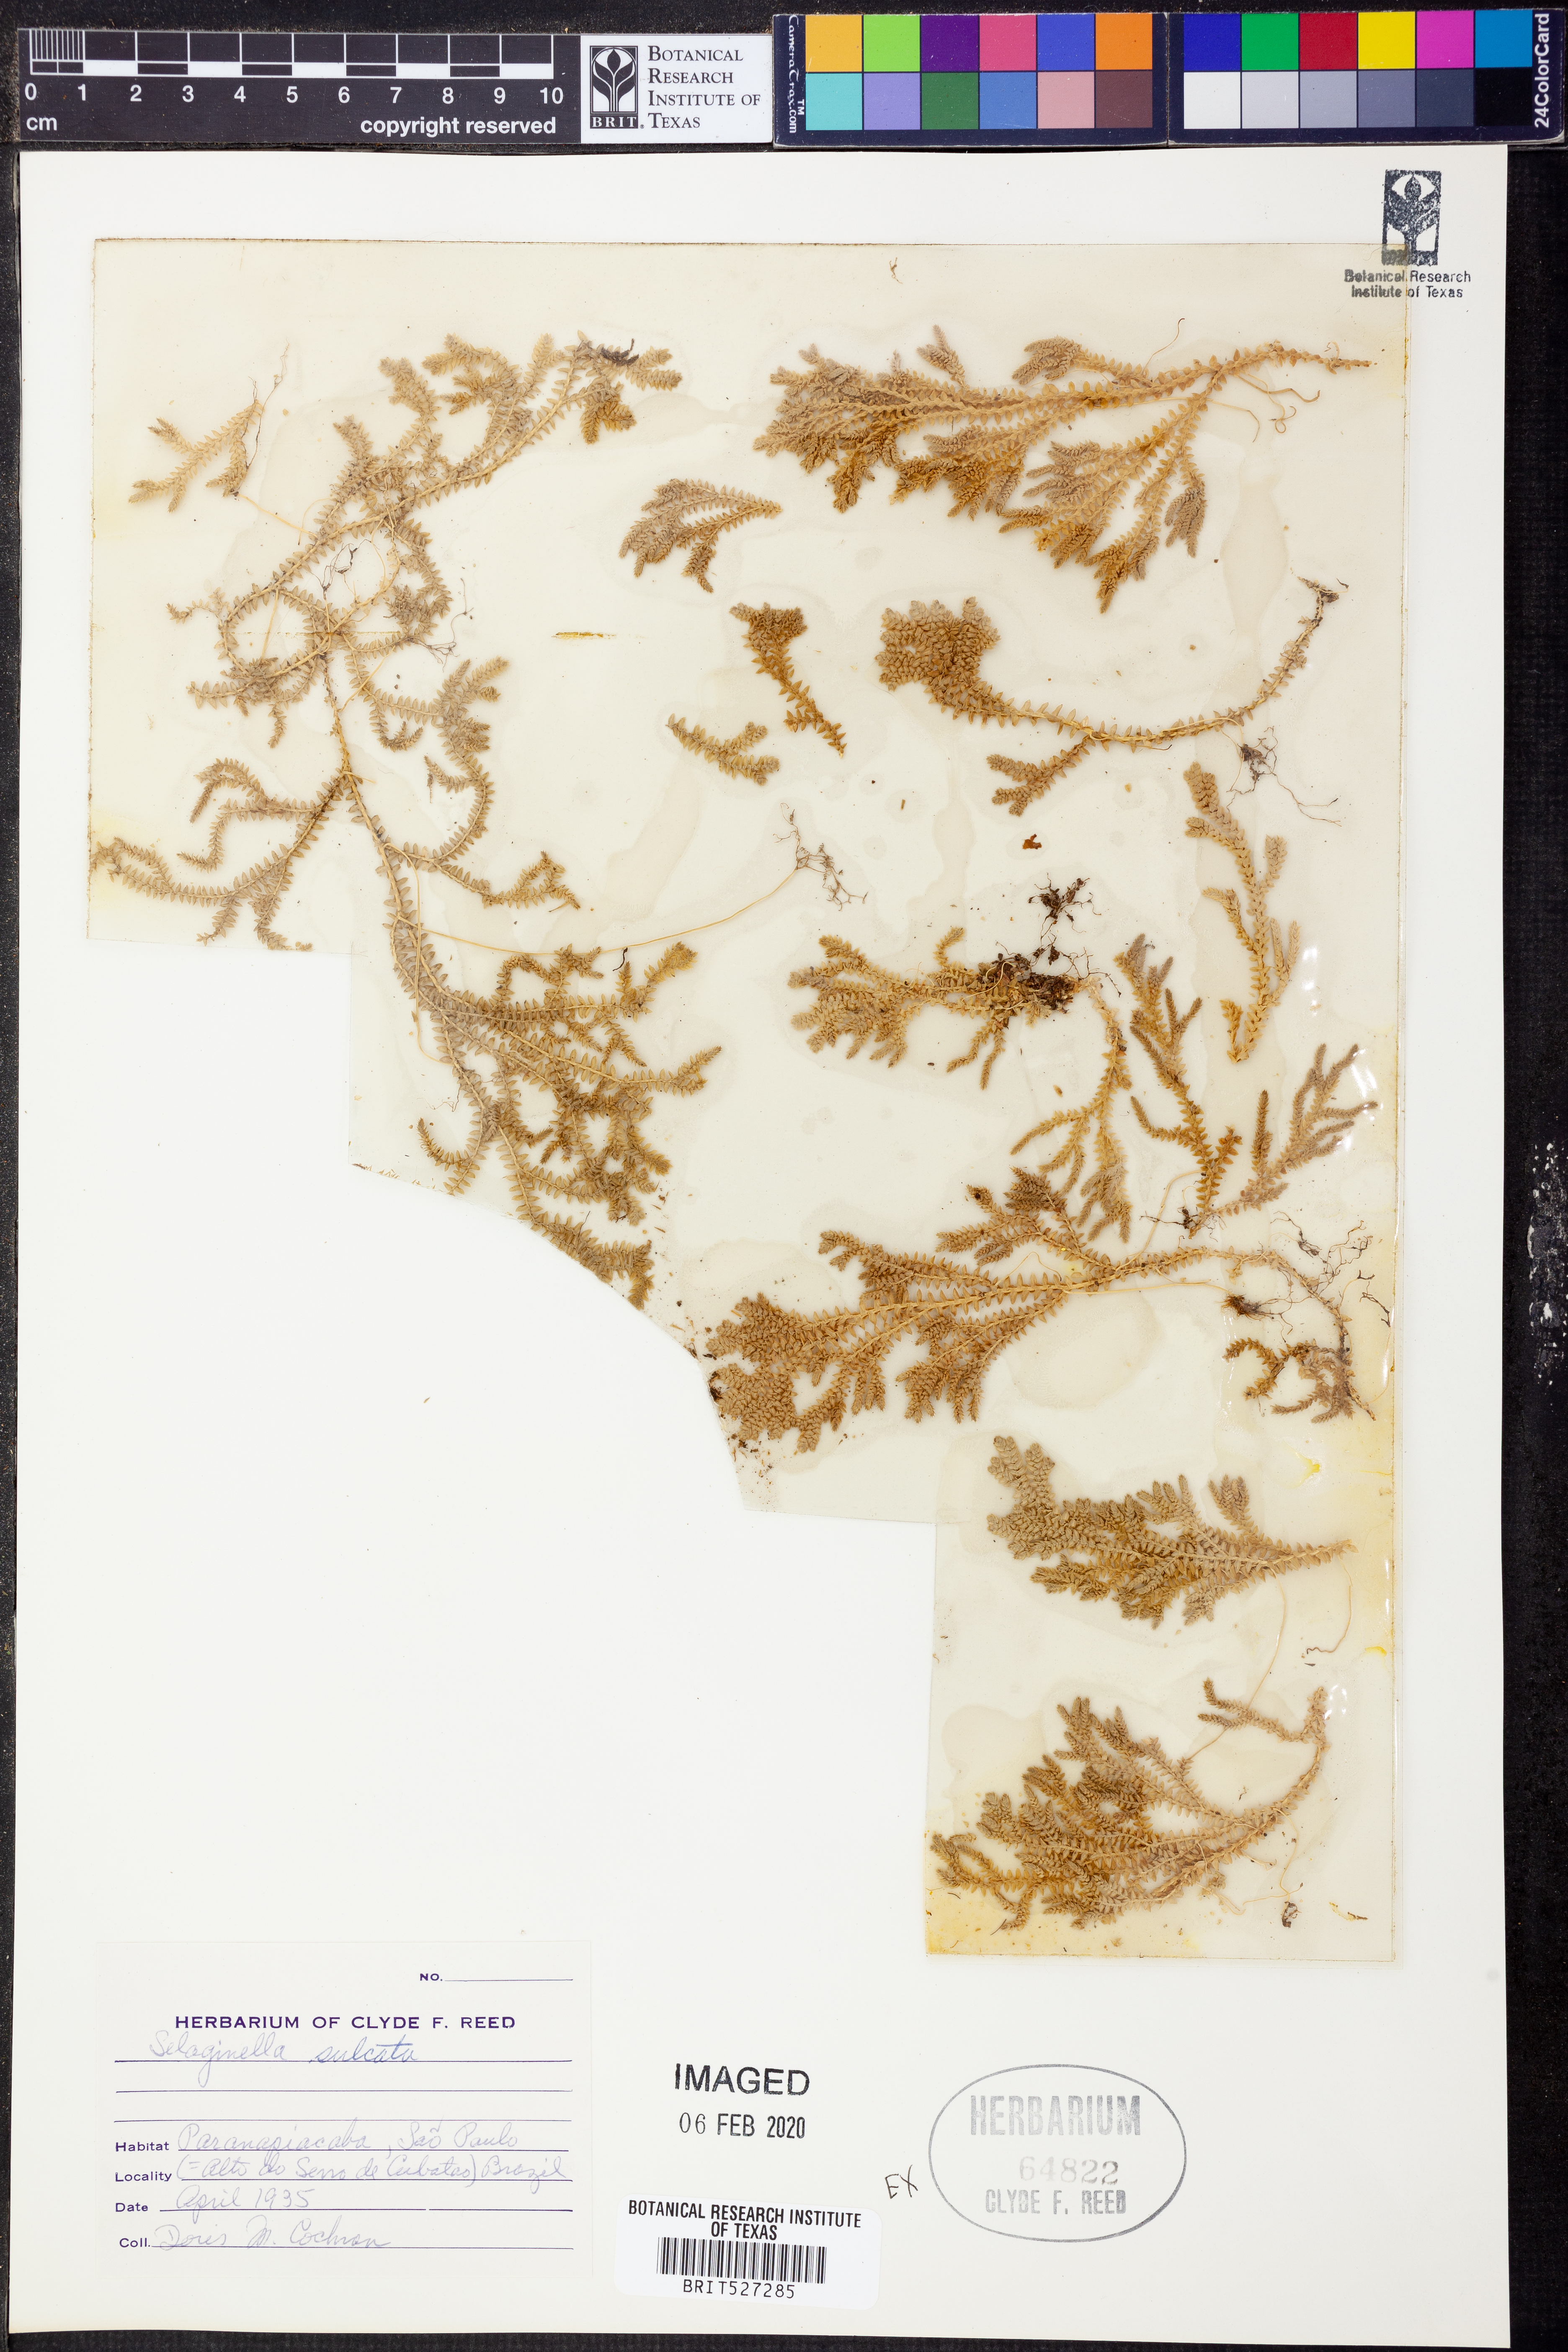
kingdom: Plantae
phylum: Tracheophyta
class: Lycopodiopsida
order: Selaginellales
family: Selaginellaceae
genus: Selaginella
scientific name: Selaginella sulcata
